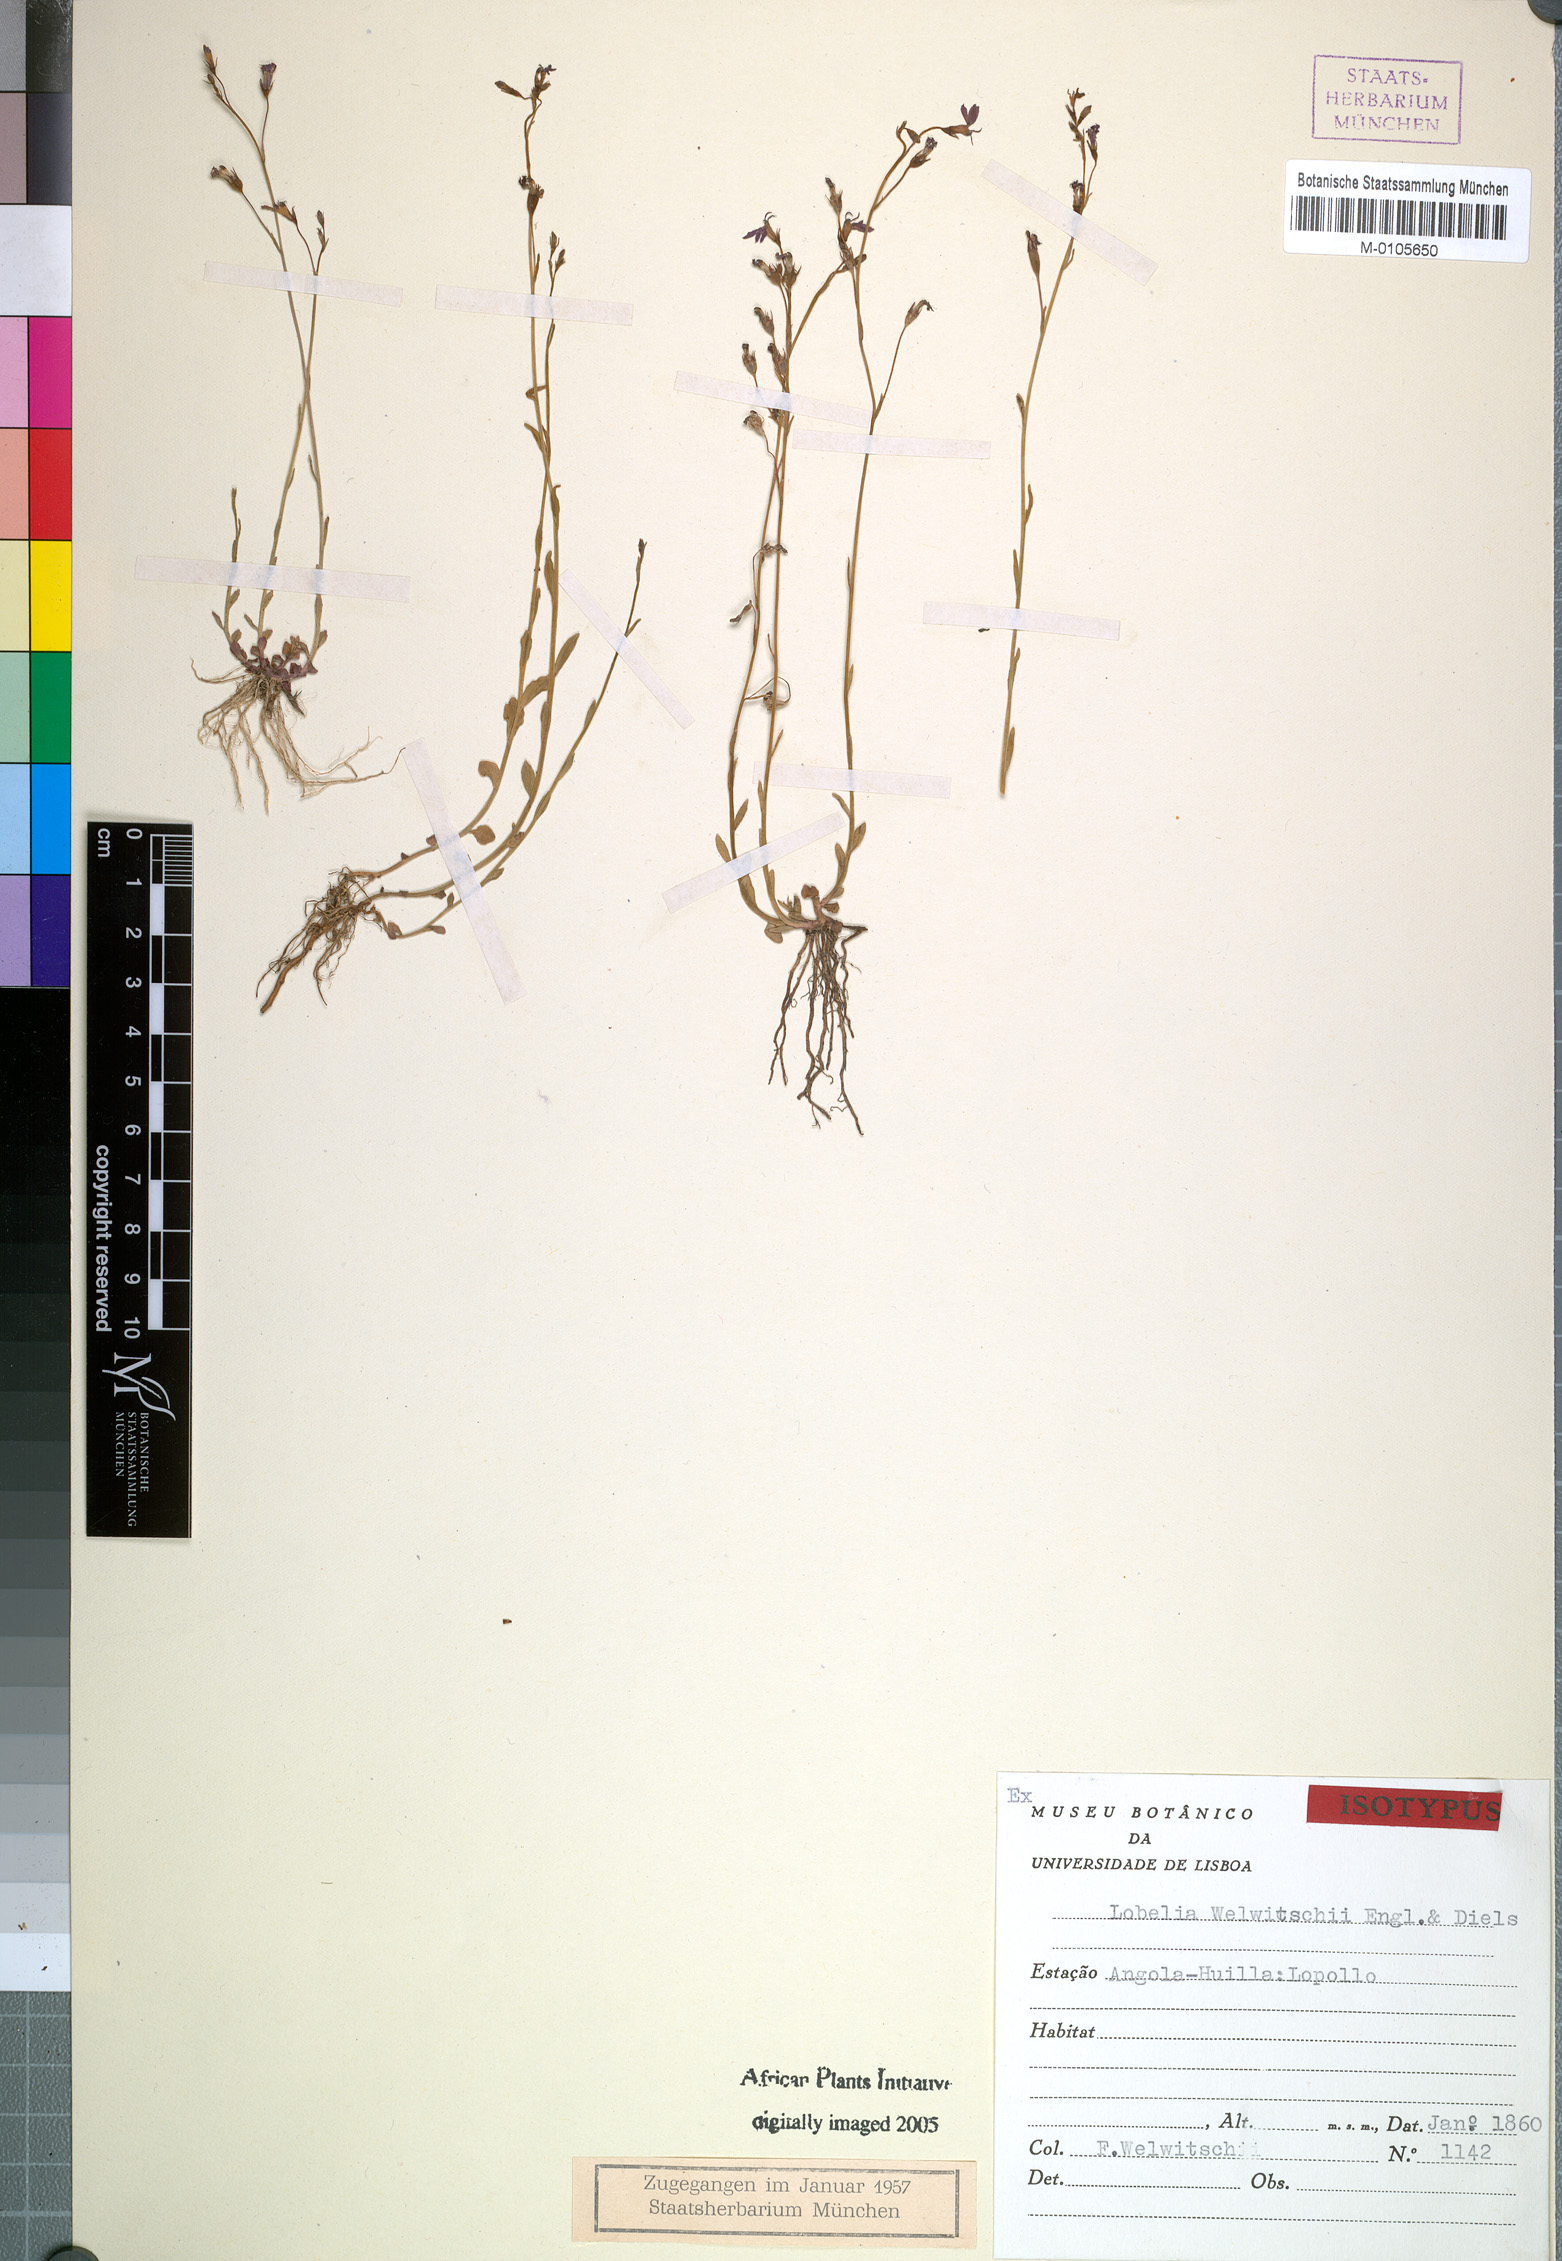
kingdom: Plantae
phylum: Tracheophyta
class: Magnoliopsida
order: Asterales
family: Campanulaceae
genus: Lobelia
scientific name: Lobelia welwitschii
